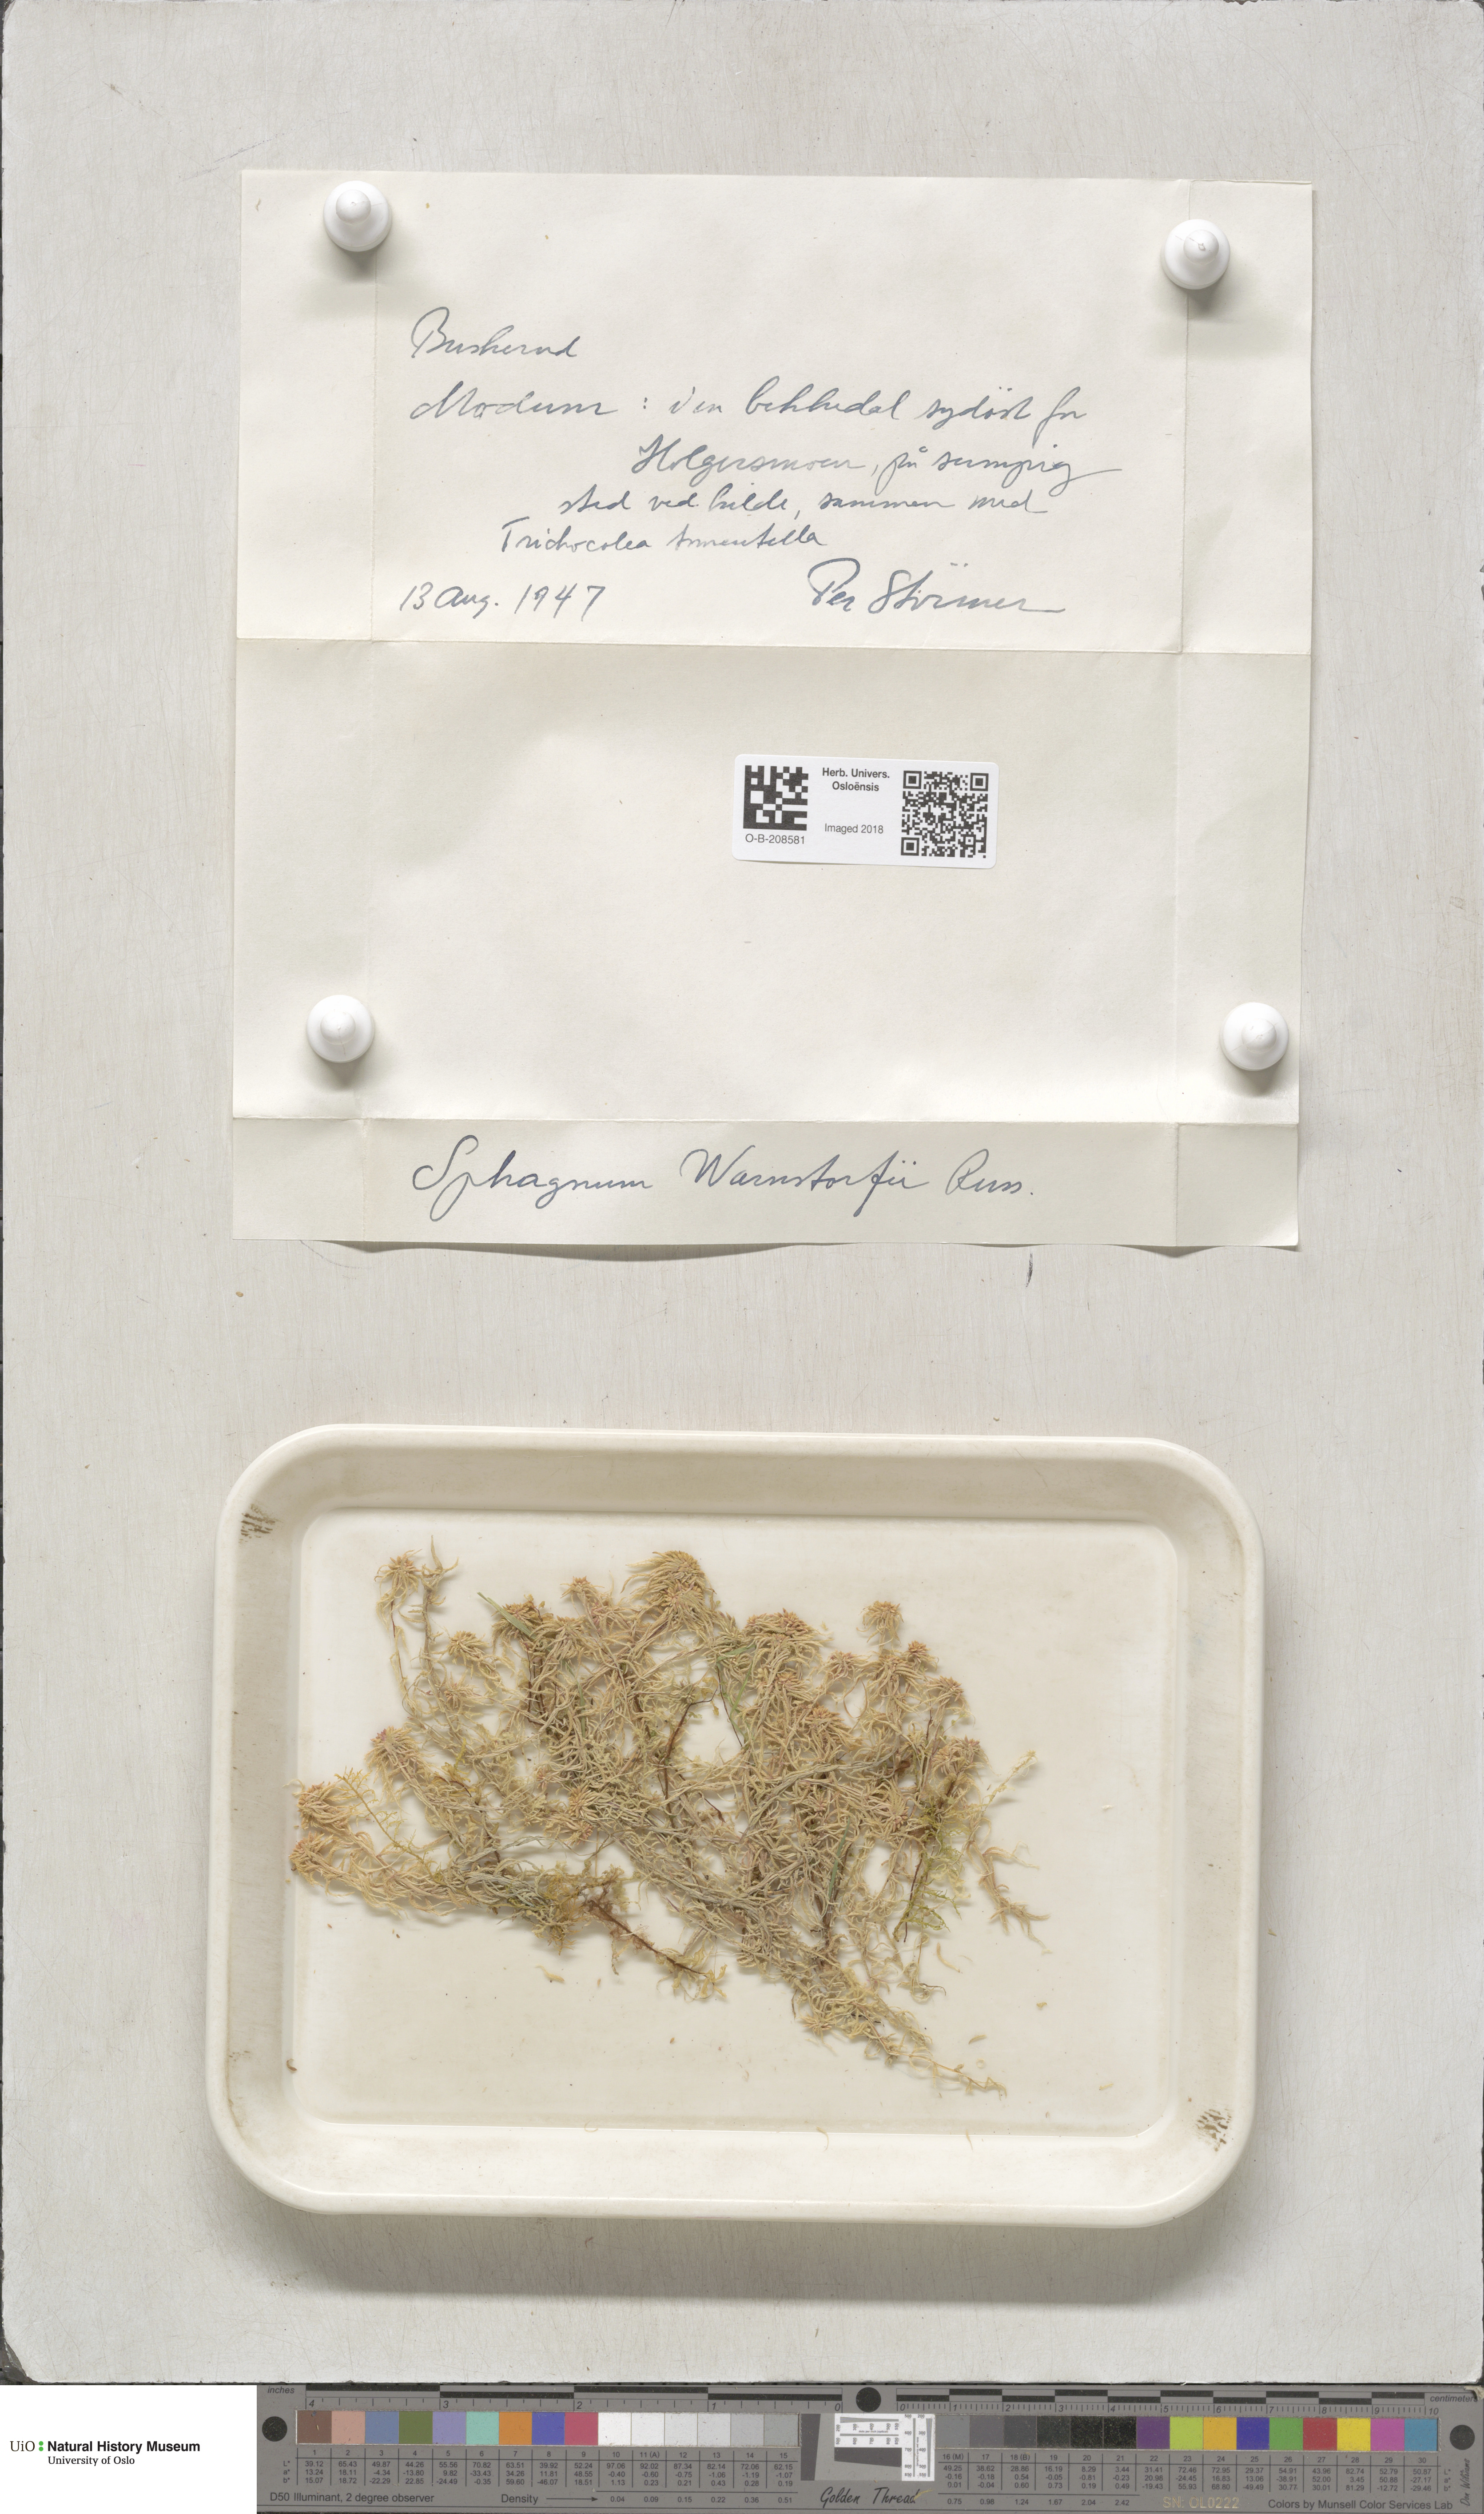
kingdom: Plantae
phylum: Bryophyta
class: Sphagnopsida
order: Sphagnales
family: Sphagnaceae
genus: Sphagnum
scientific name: Sphagnum warnstorfii
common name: Warnstorf's peat moss
